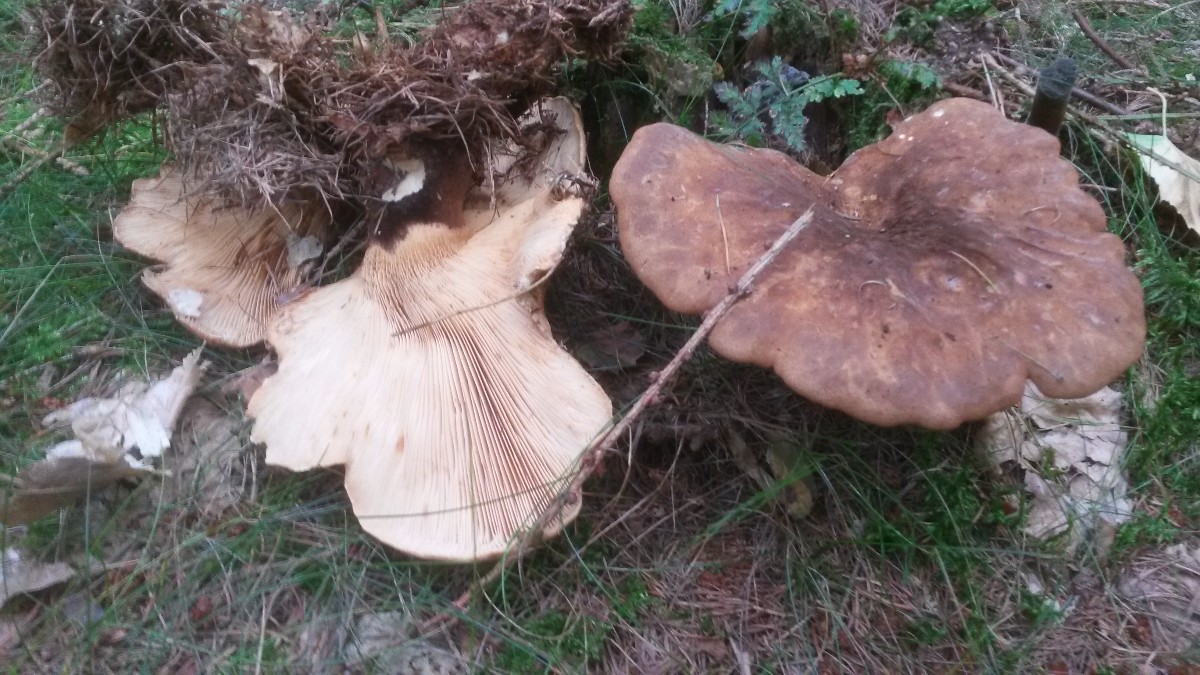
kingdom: Fungi
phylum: Basidiomycota
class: Agaricomycetes
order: Boletales
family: Tapinellaceae
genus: Tapinella
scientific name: Tapinella atrotomentosa
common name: sortfiltet viftesvamp
